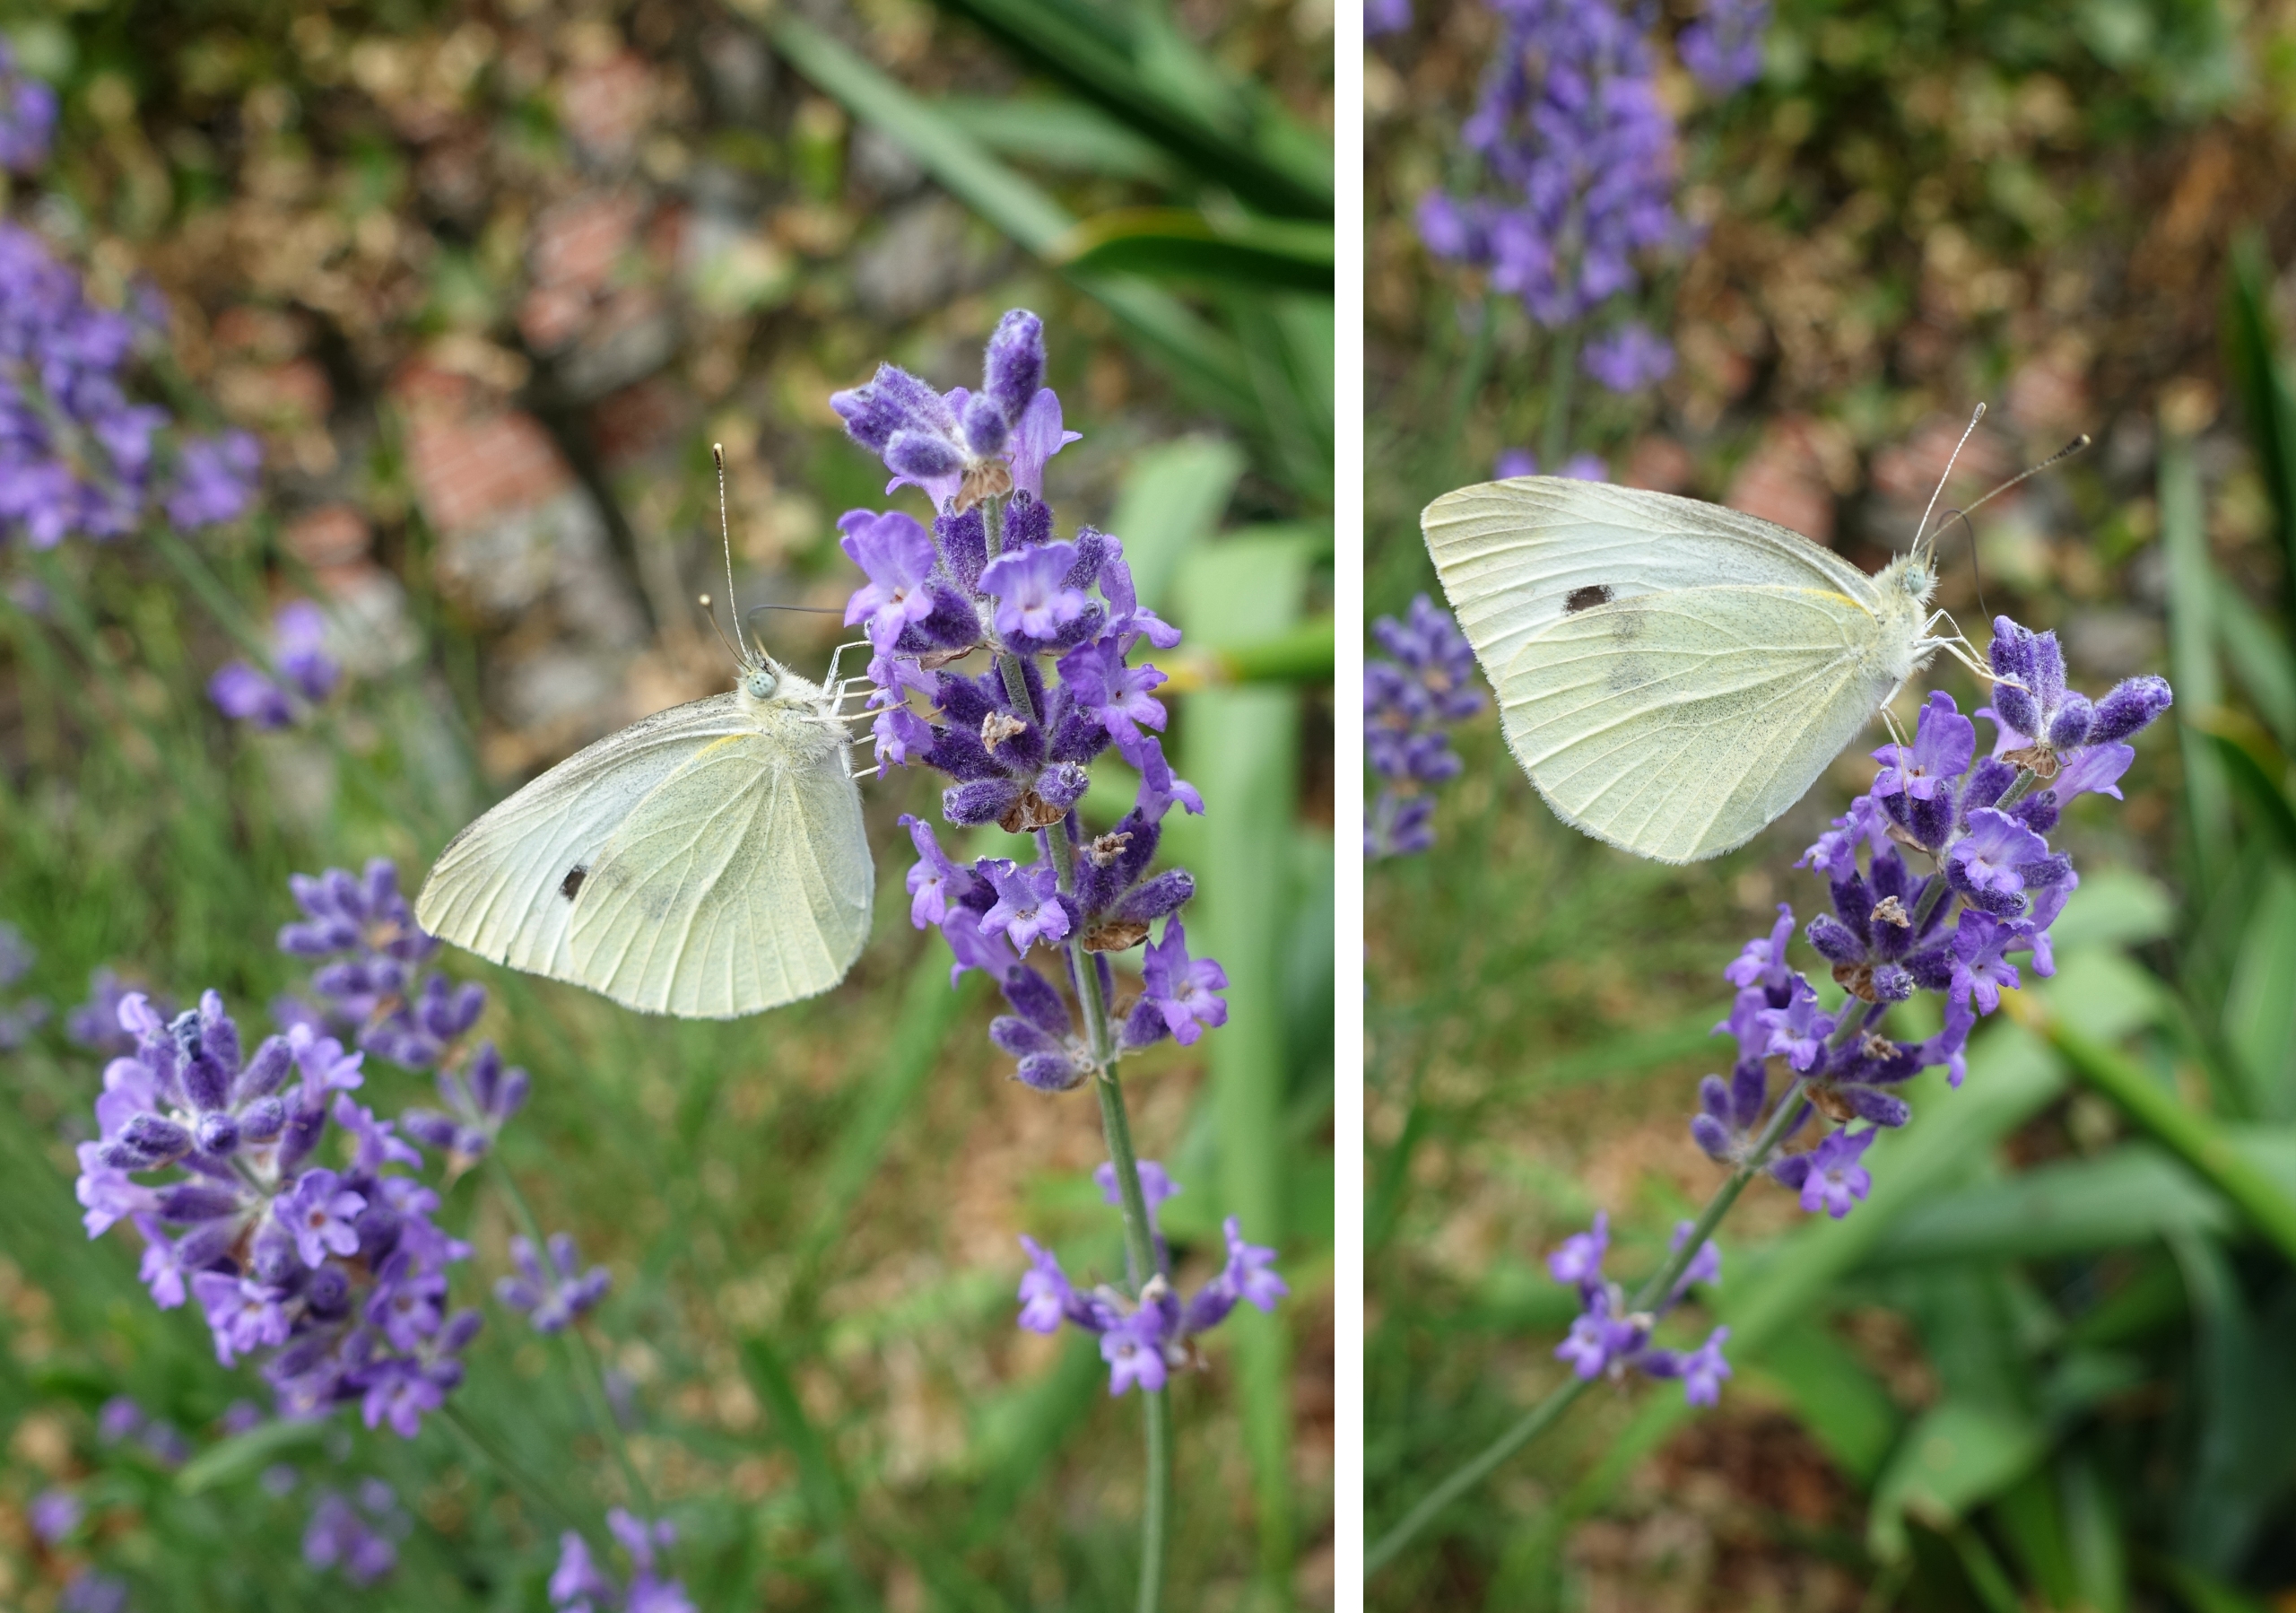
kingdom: Animalia
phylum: Arthropoda
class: Insecta
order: Lepidoptera
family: Pieridae
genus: Pieris
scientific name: Pieris rapae
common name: Lille kålsommerfugl
